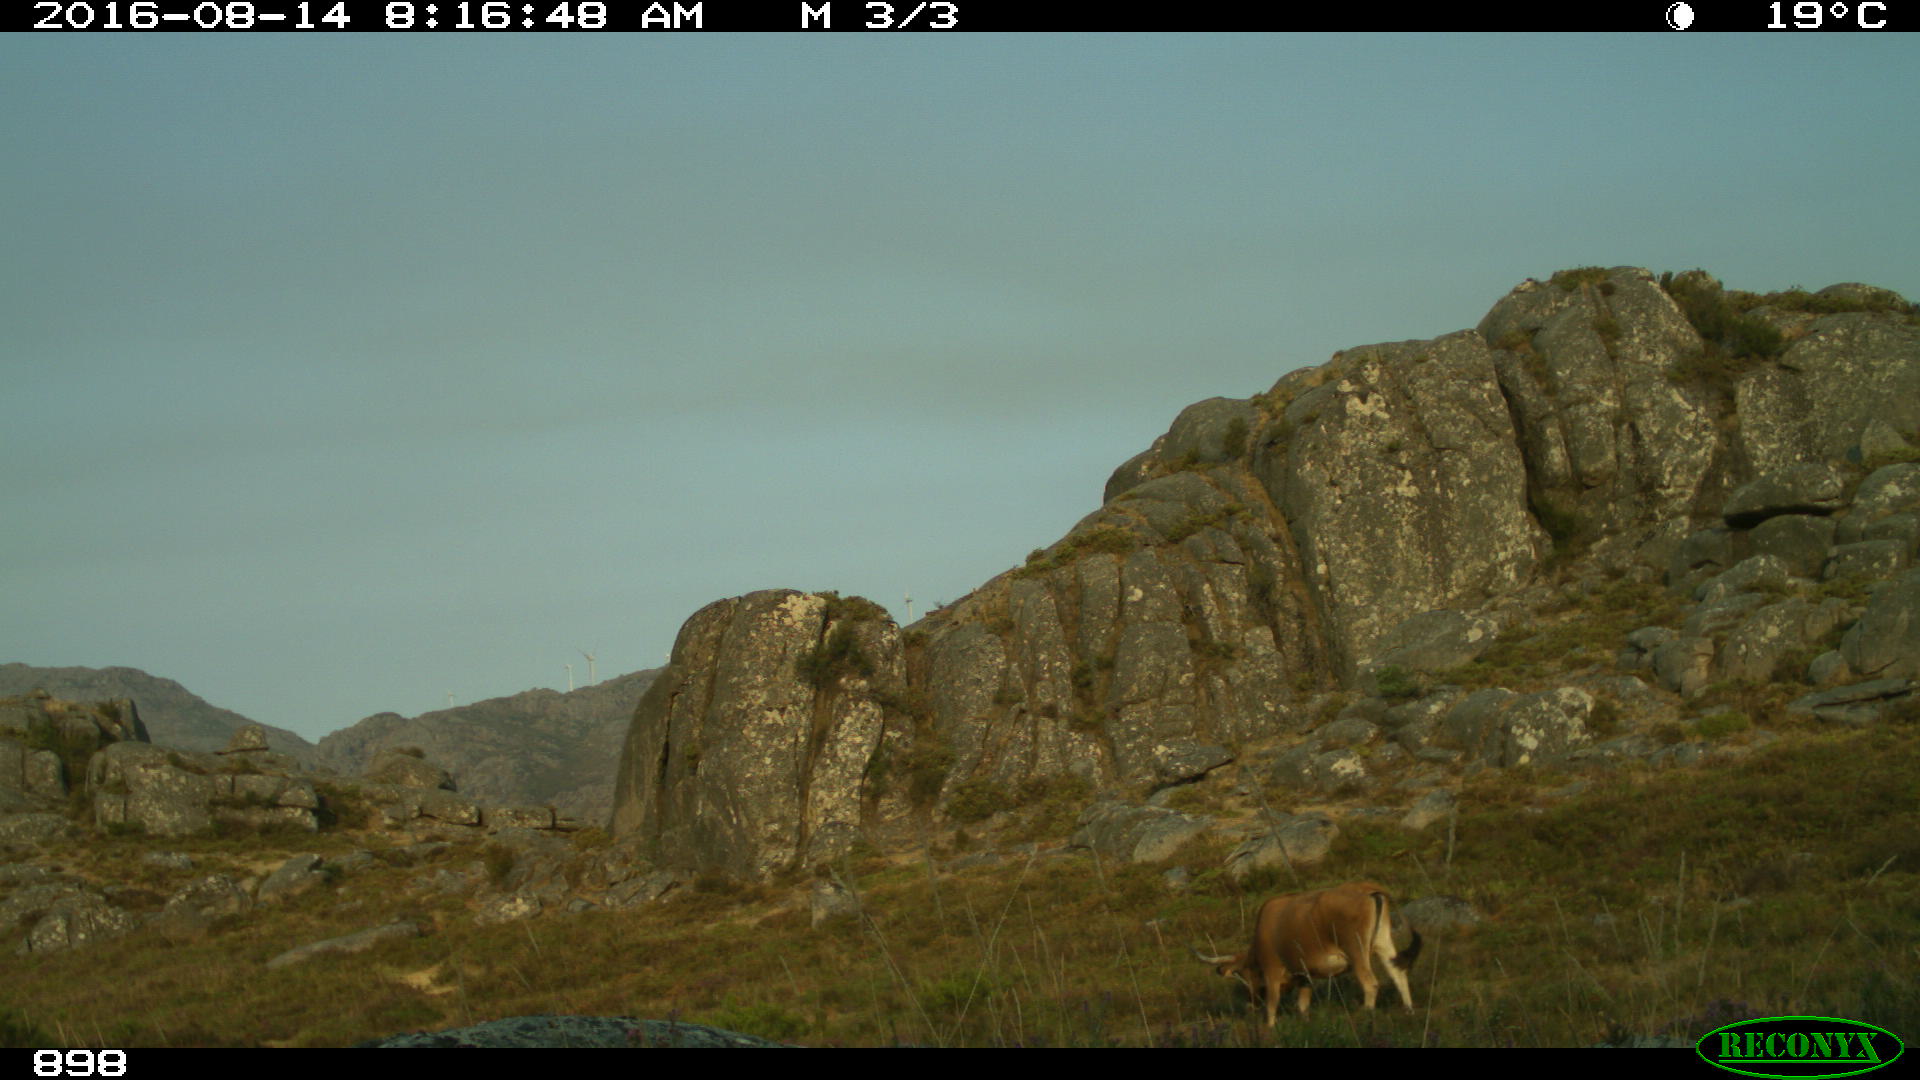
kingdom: Animalia
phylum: Chordata
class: Mammalia
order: Artiodactyla
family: Bovidae
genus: Bos
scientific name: Bos taurus
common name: Domesticated cattle
